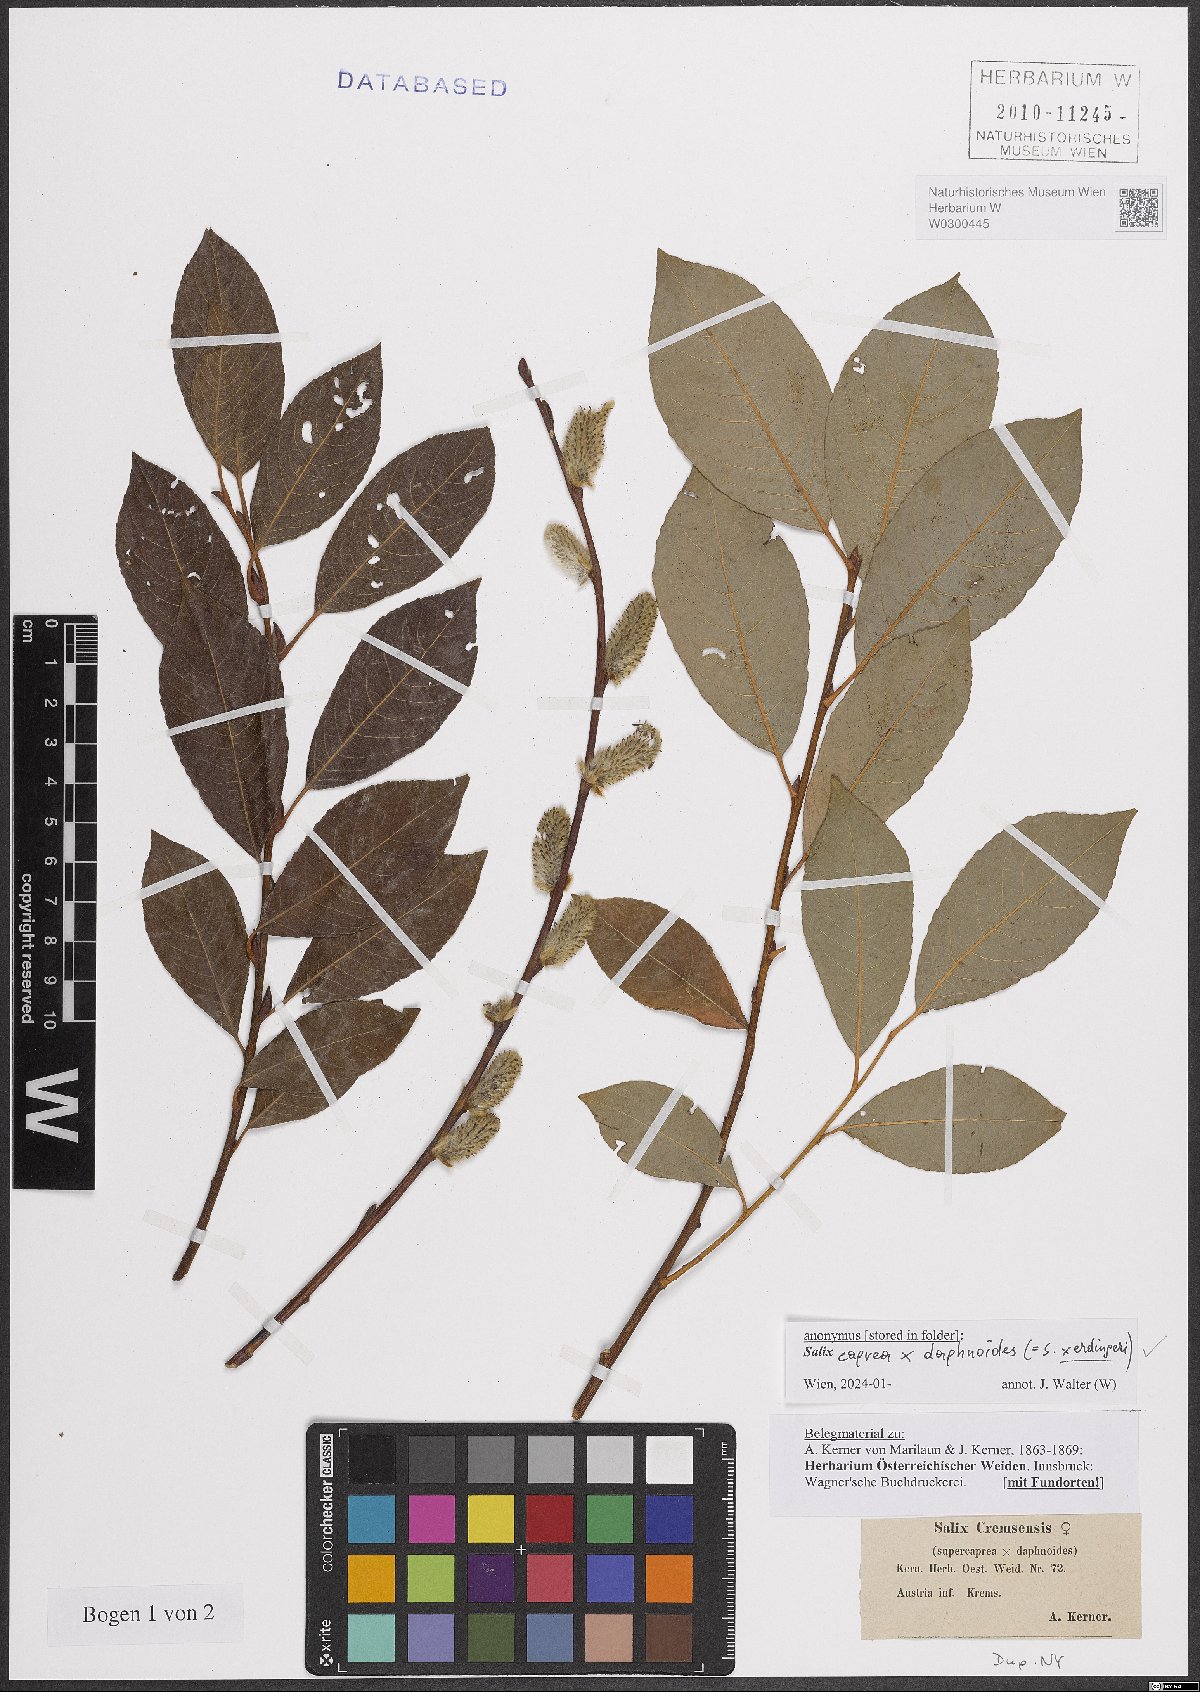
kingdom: Plantae
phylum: Tracheophyta
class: Magnoliopsida
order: Malpighiales
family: Salicaceae
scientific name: Salicaceae
